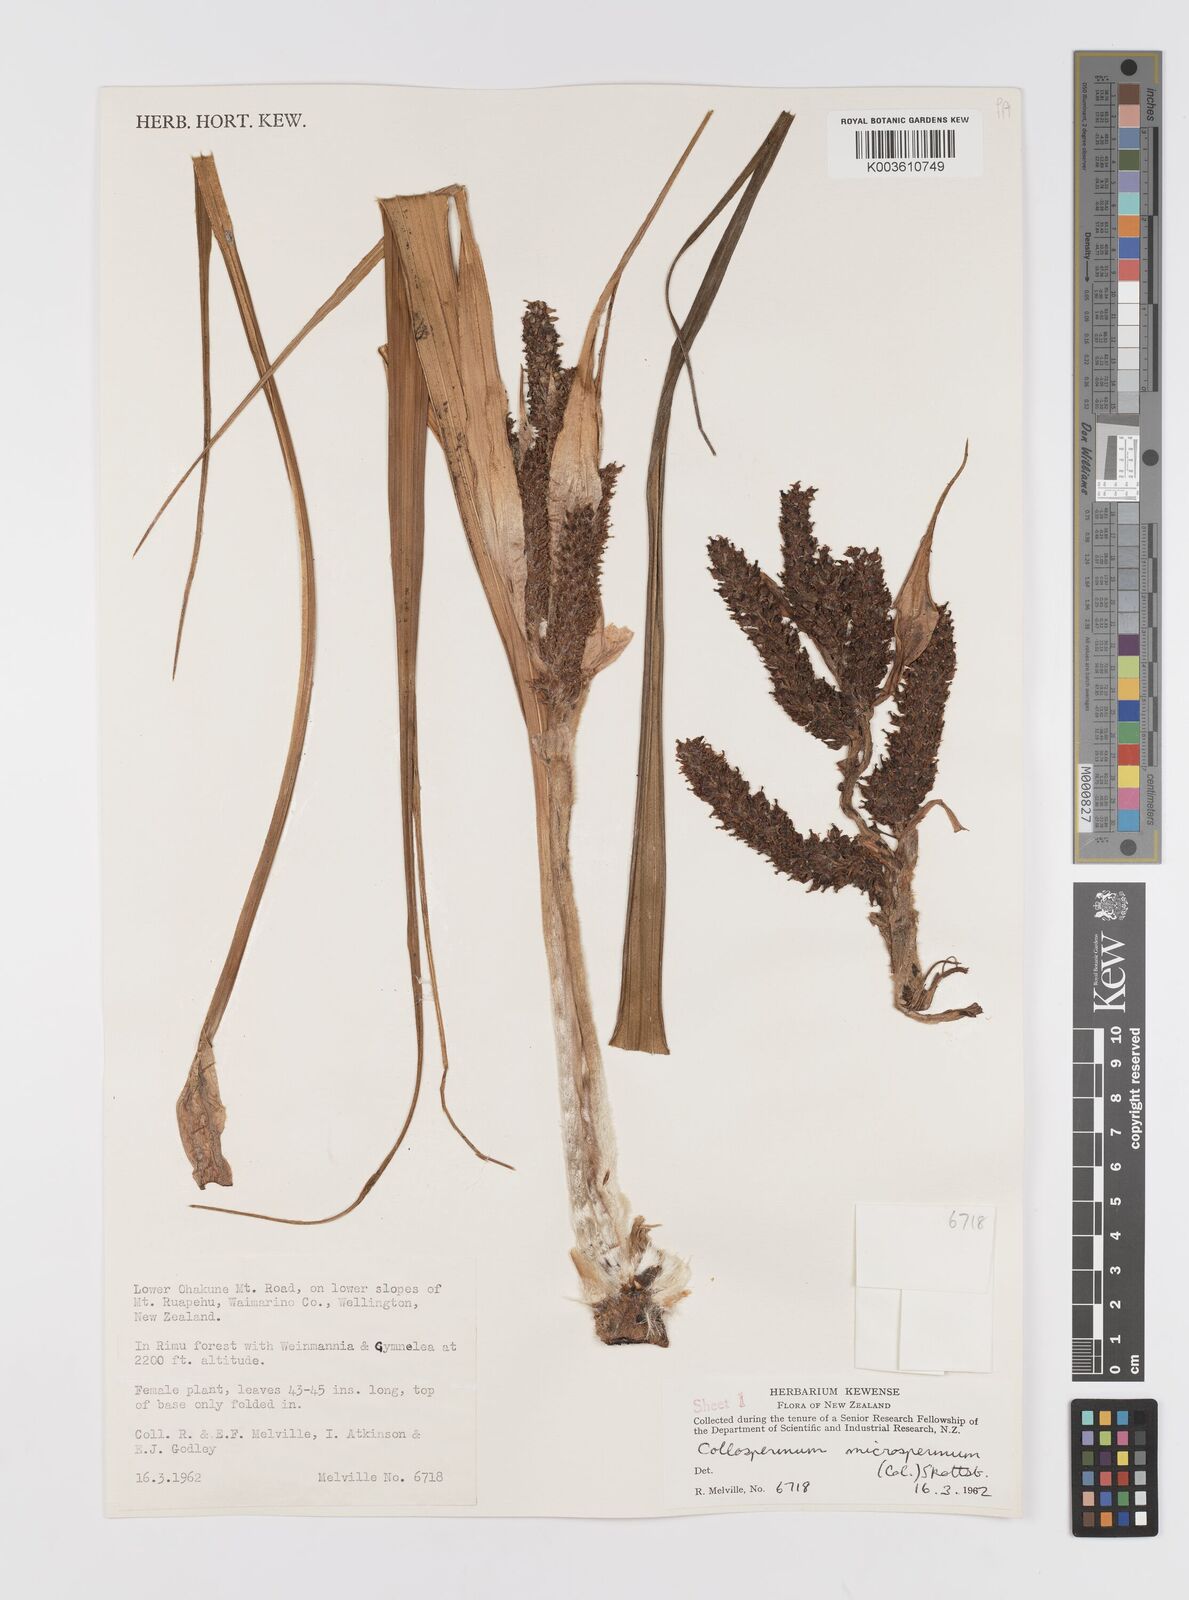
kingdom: Plantae
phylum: Tracheophyta
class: Liliopsida
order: Asparagales
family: Asteliaceae
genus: Astelia
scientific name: Astelia microsperma
